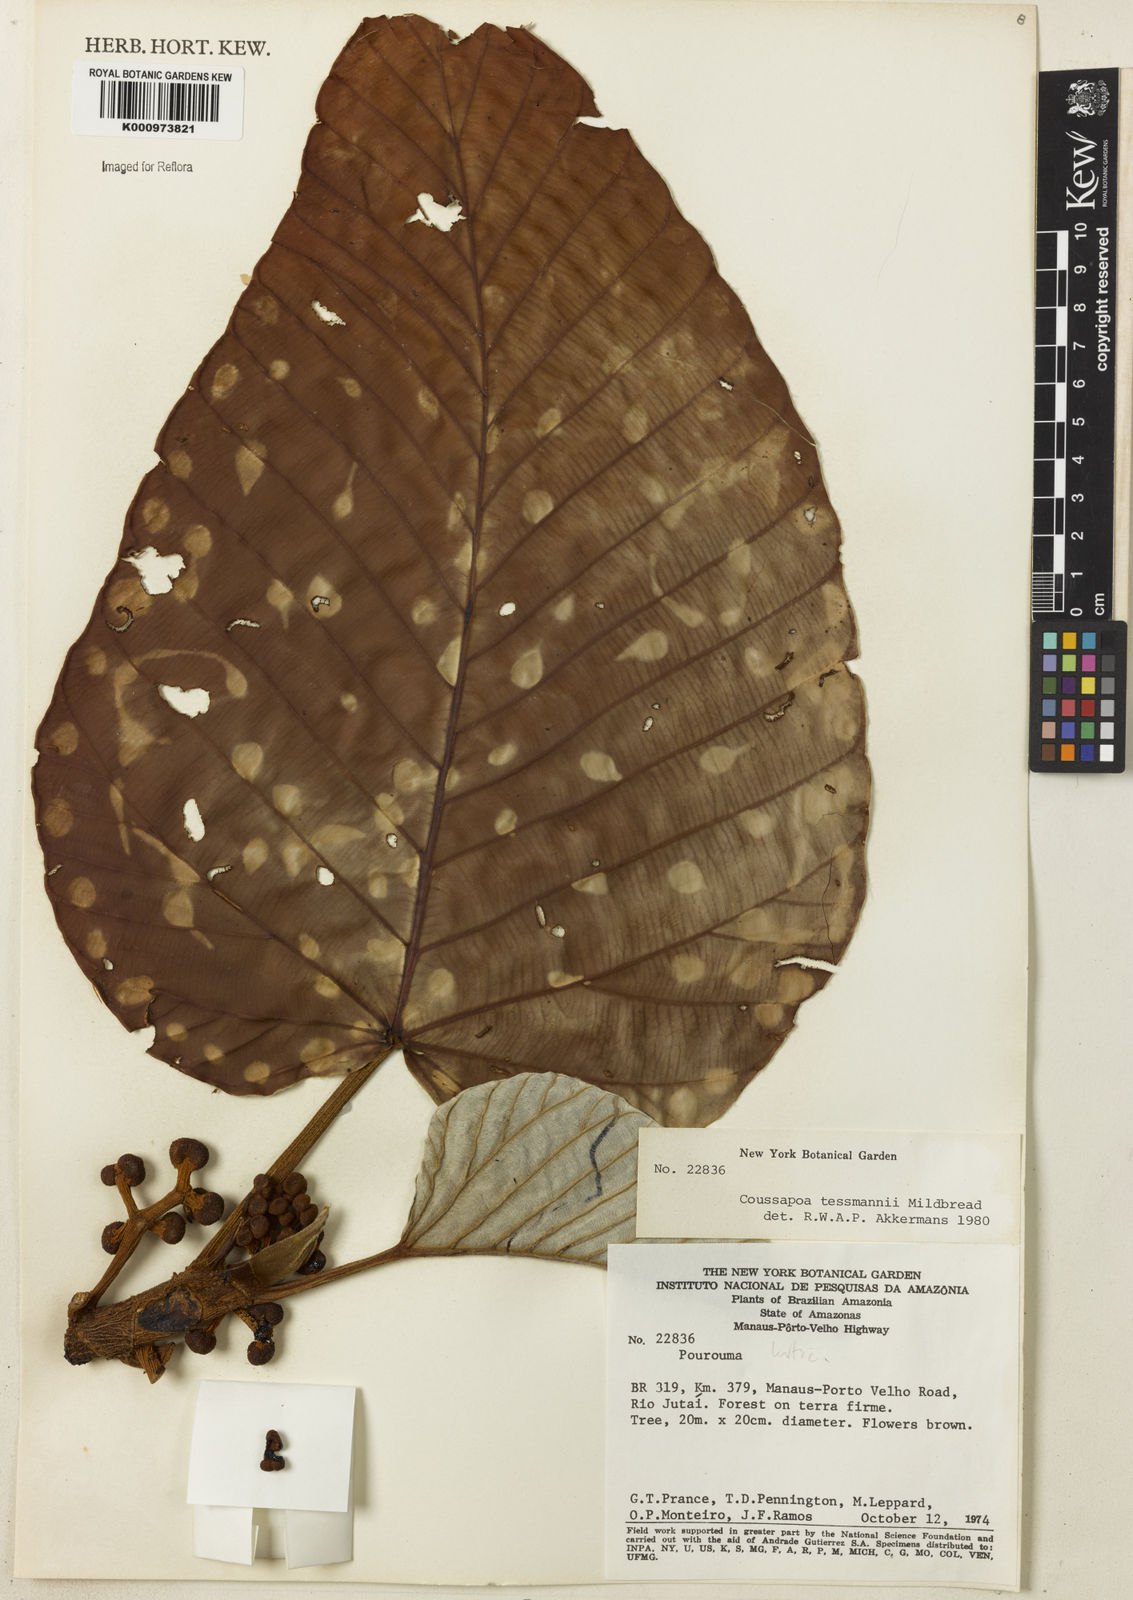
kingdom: Plantae
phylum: Tracheophyta
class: Magnoliopsida
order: Rosales
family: Urticaceae
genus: Coussapoa
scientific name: Coussapoa tessmannii
